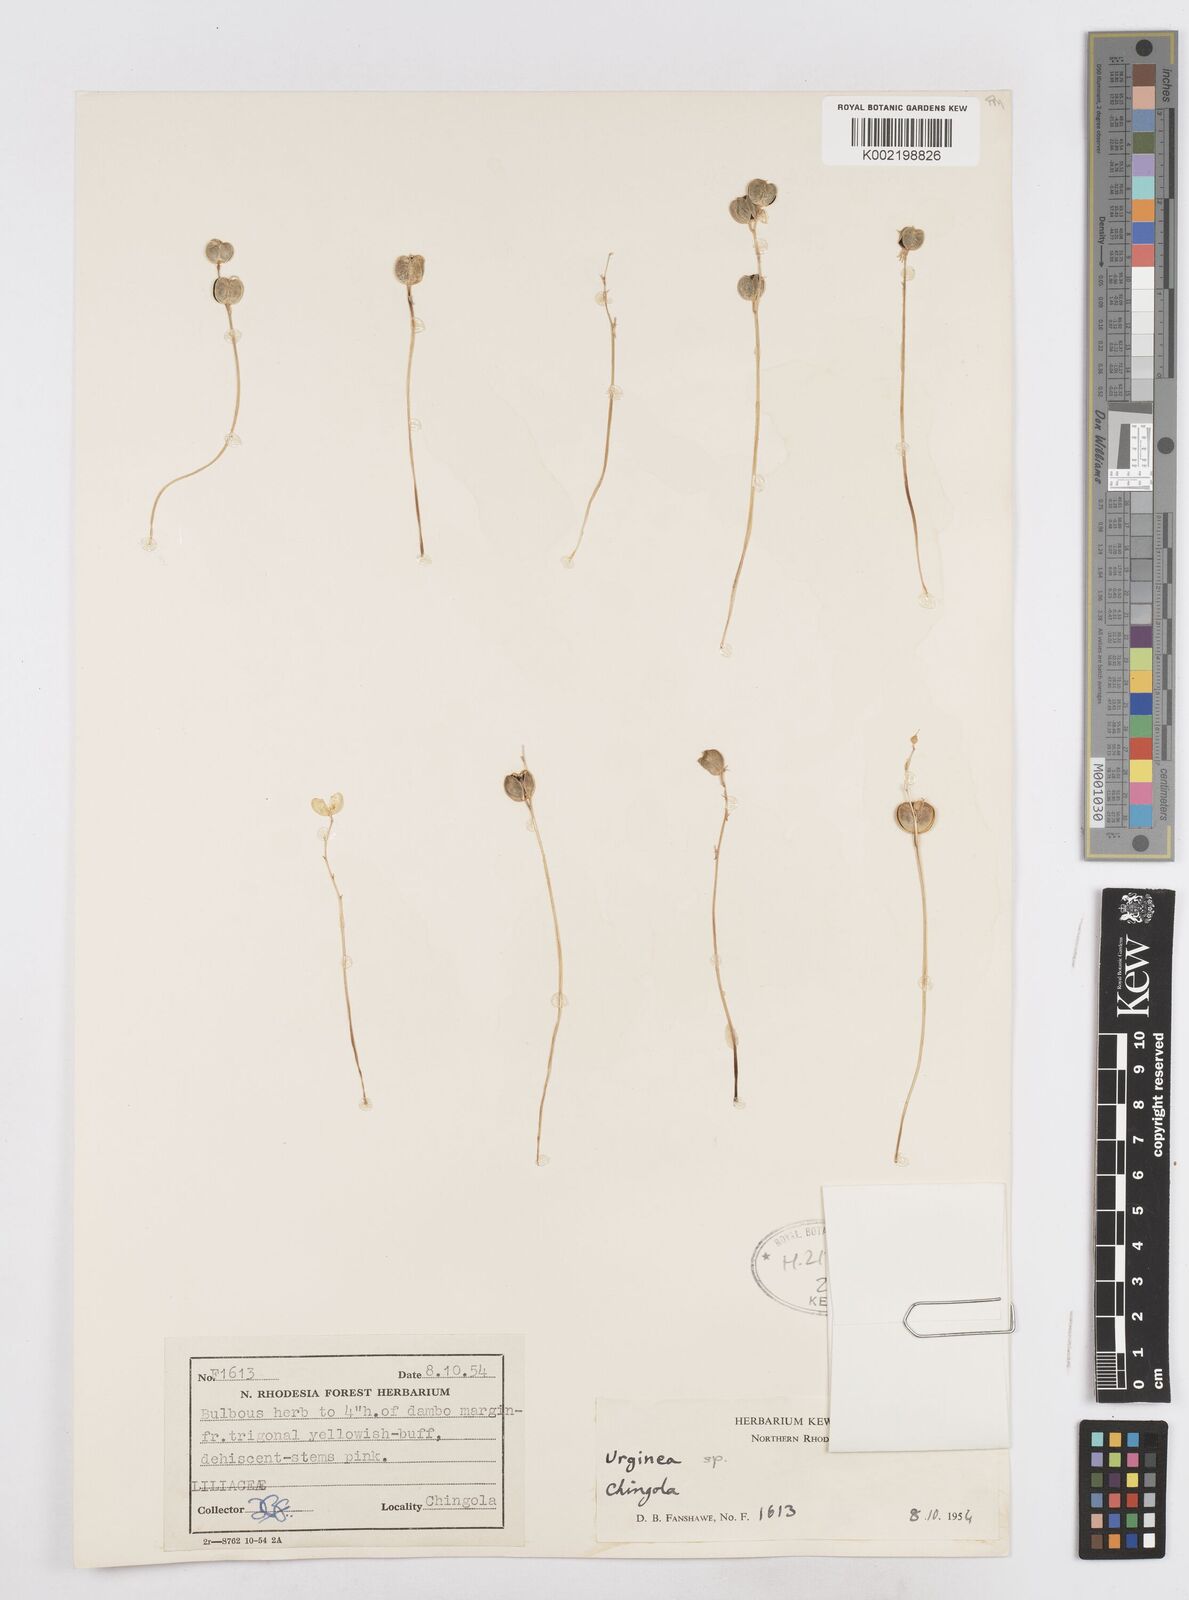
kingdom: Plantae
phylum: Tracheophyta
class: Liliopsida
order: Asparagales
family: Asparagaceae
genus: Drimia
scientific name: Drimia
